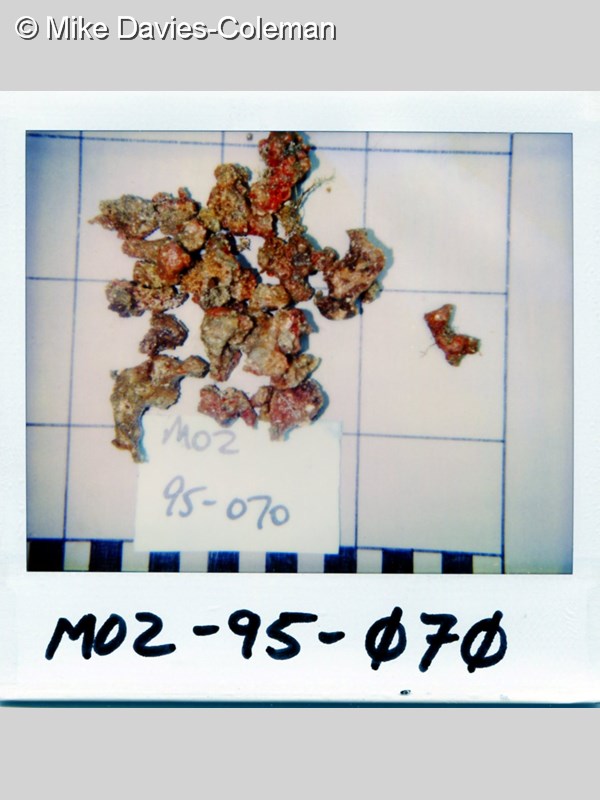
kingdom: Animalia
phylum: Porifera
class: Demospongiae
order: Poecilosclerida
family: Chondropsidae
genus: Chondropsis
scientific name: Chondropsis
